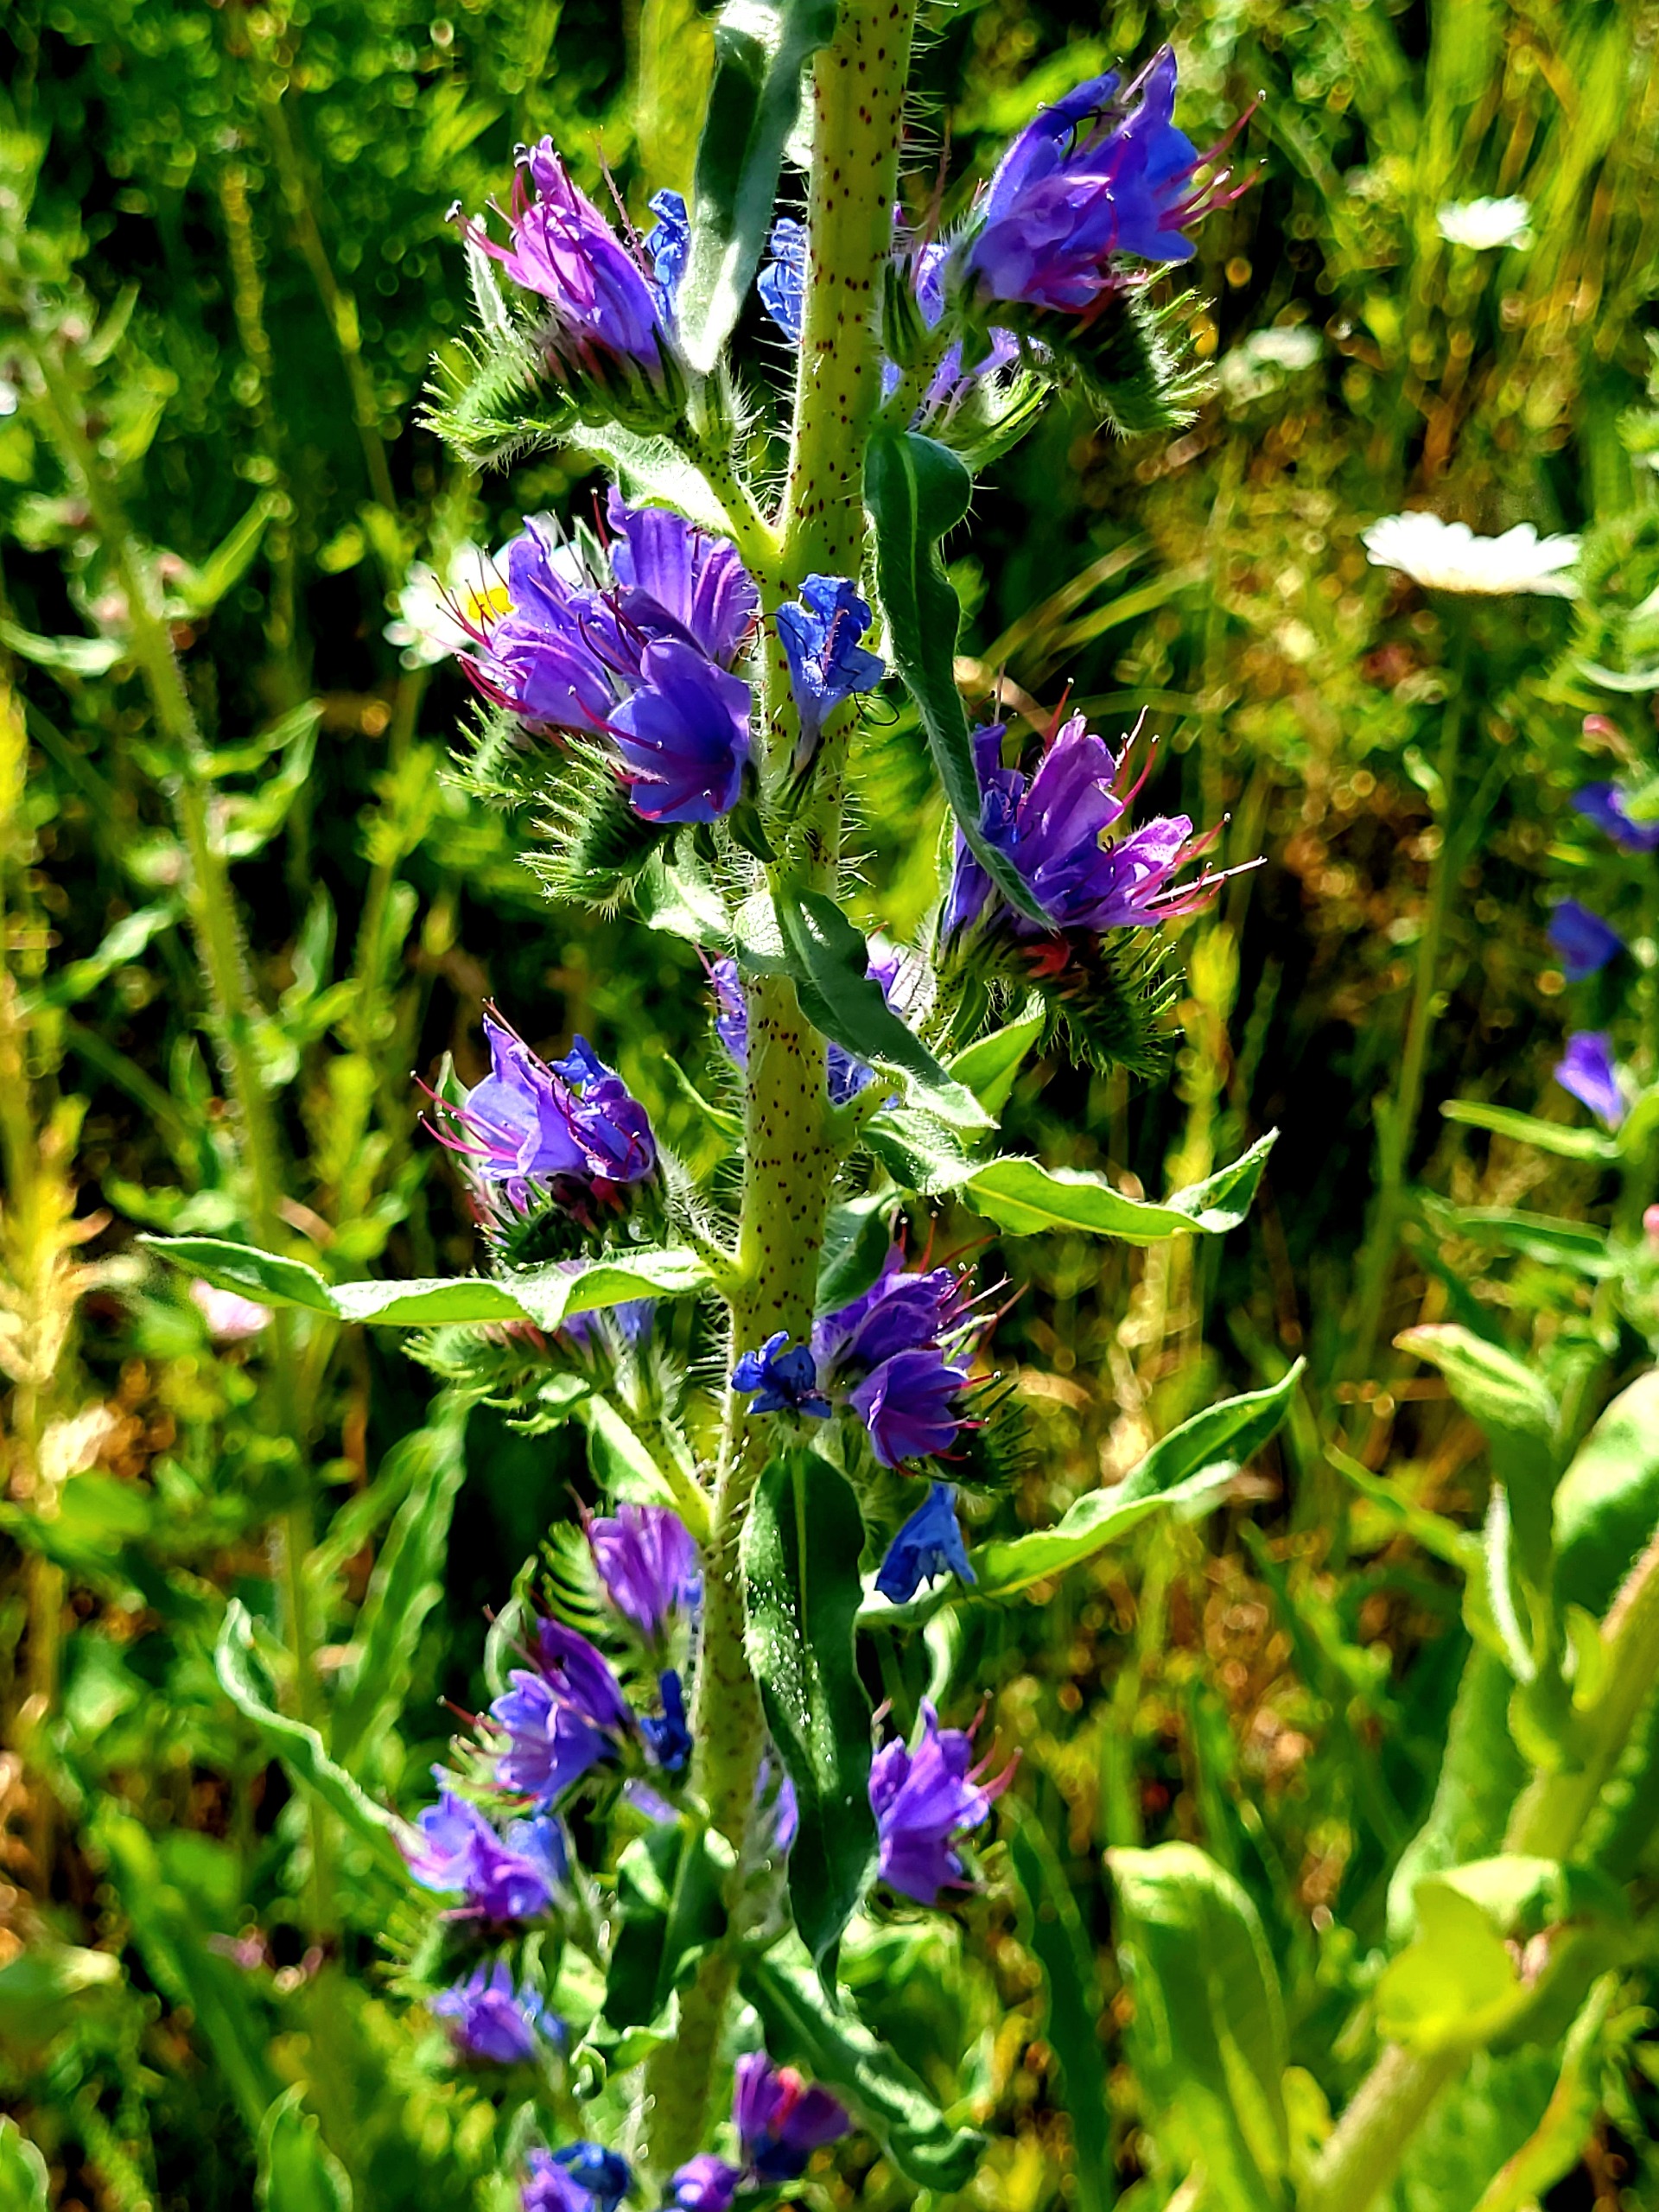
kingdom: Plantae
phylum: Tracheophyta
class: Magnoliopsida
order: Boraginales
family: Boraginaceae
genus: Echium
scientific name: Echium vulgare
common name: Slangehoved
